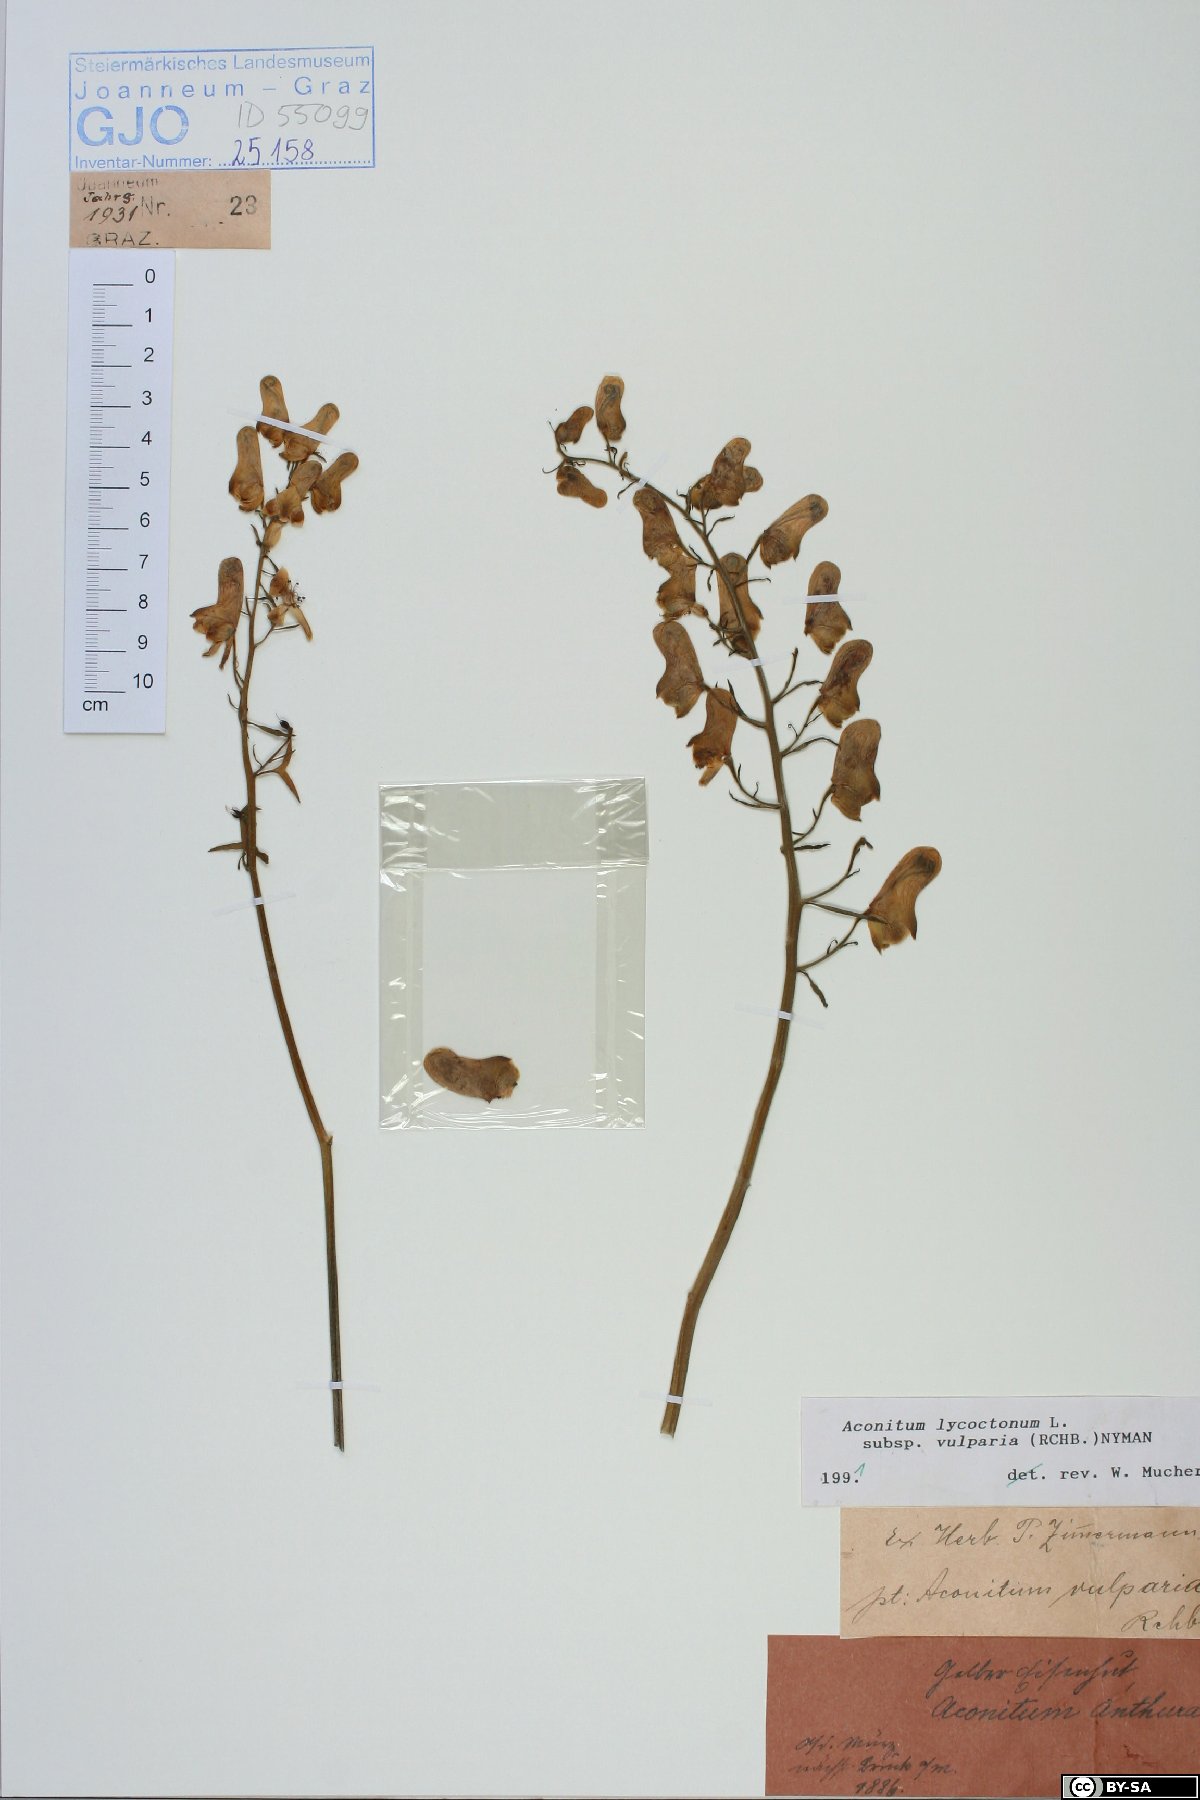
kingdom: Plantae
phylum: Tracheophyta
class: Magnoliopsida
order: Ranunculales
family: Ranunculaceae
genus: Aconitum
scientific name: Aconitum lycoctonum
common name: Wolf's-bane
